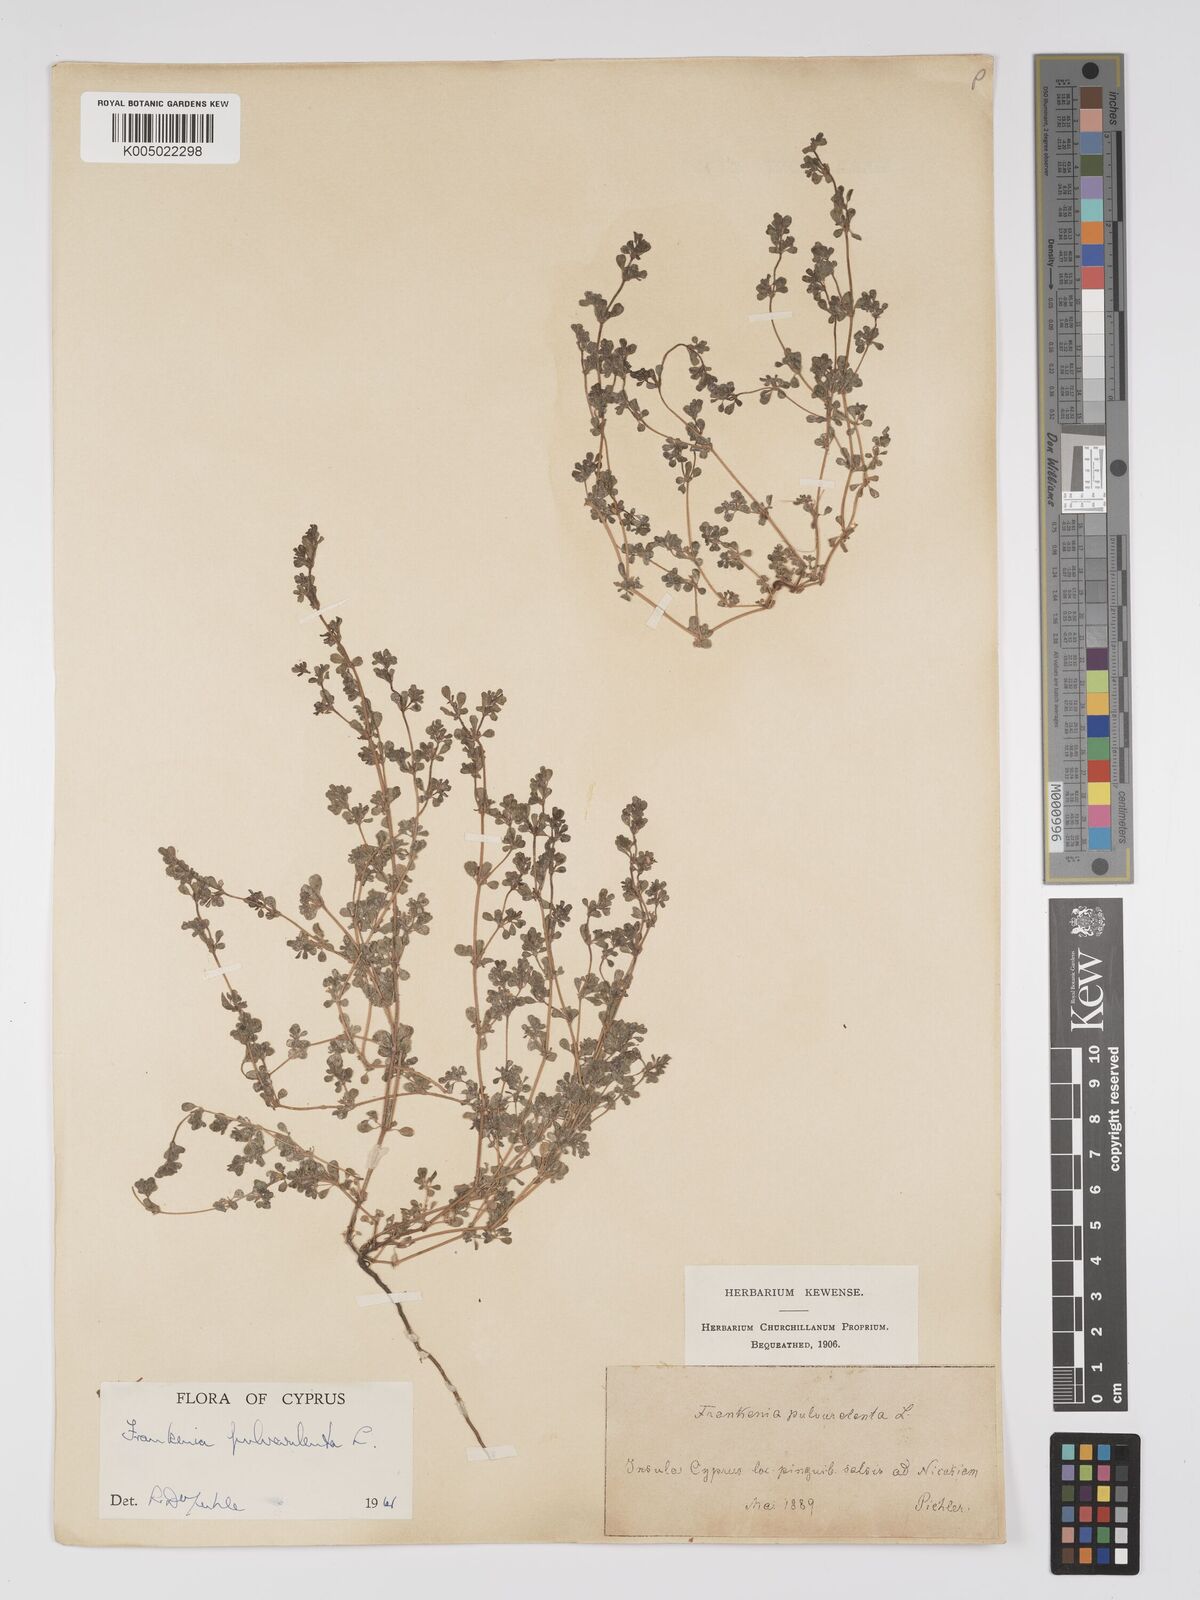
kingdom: Plantae
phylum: Tracheophyta
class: Magnoliopsida
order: Caryophyllales
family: Frankeniaceae
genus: Frankenia
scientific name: Frankenia pulverulenta
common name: European seaheath
